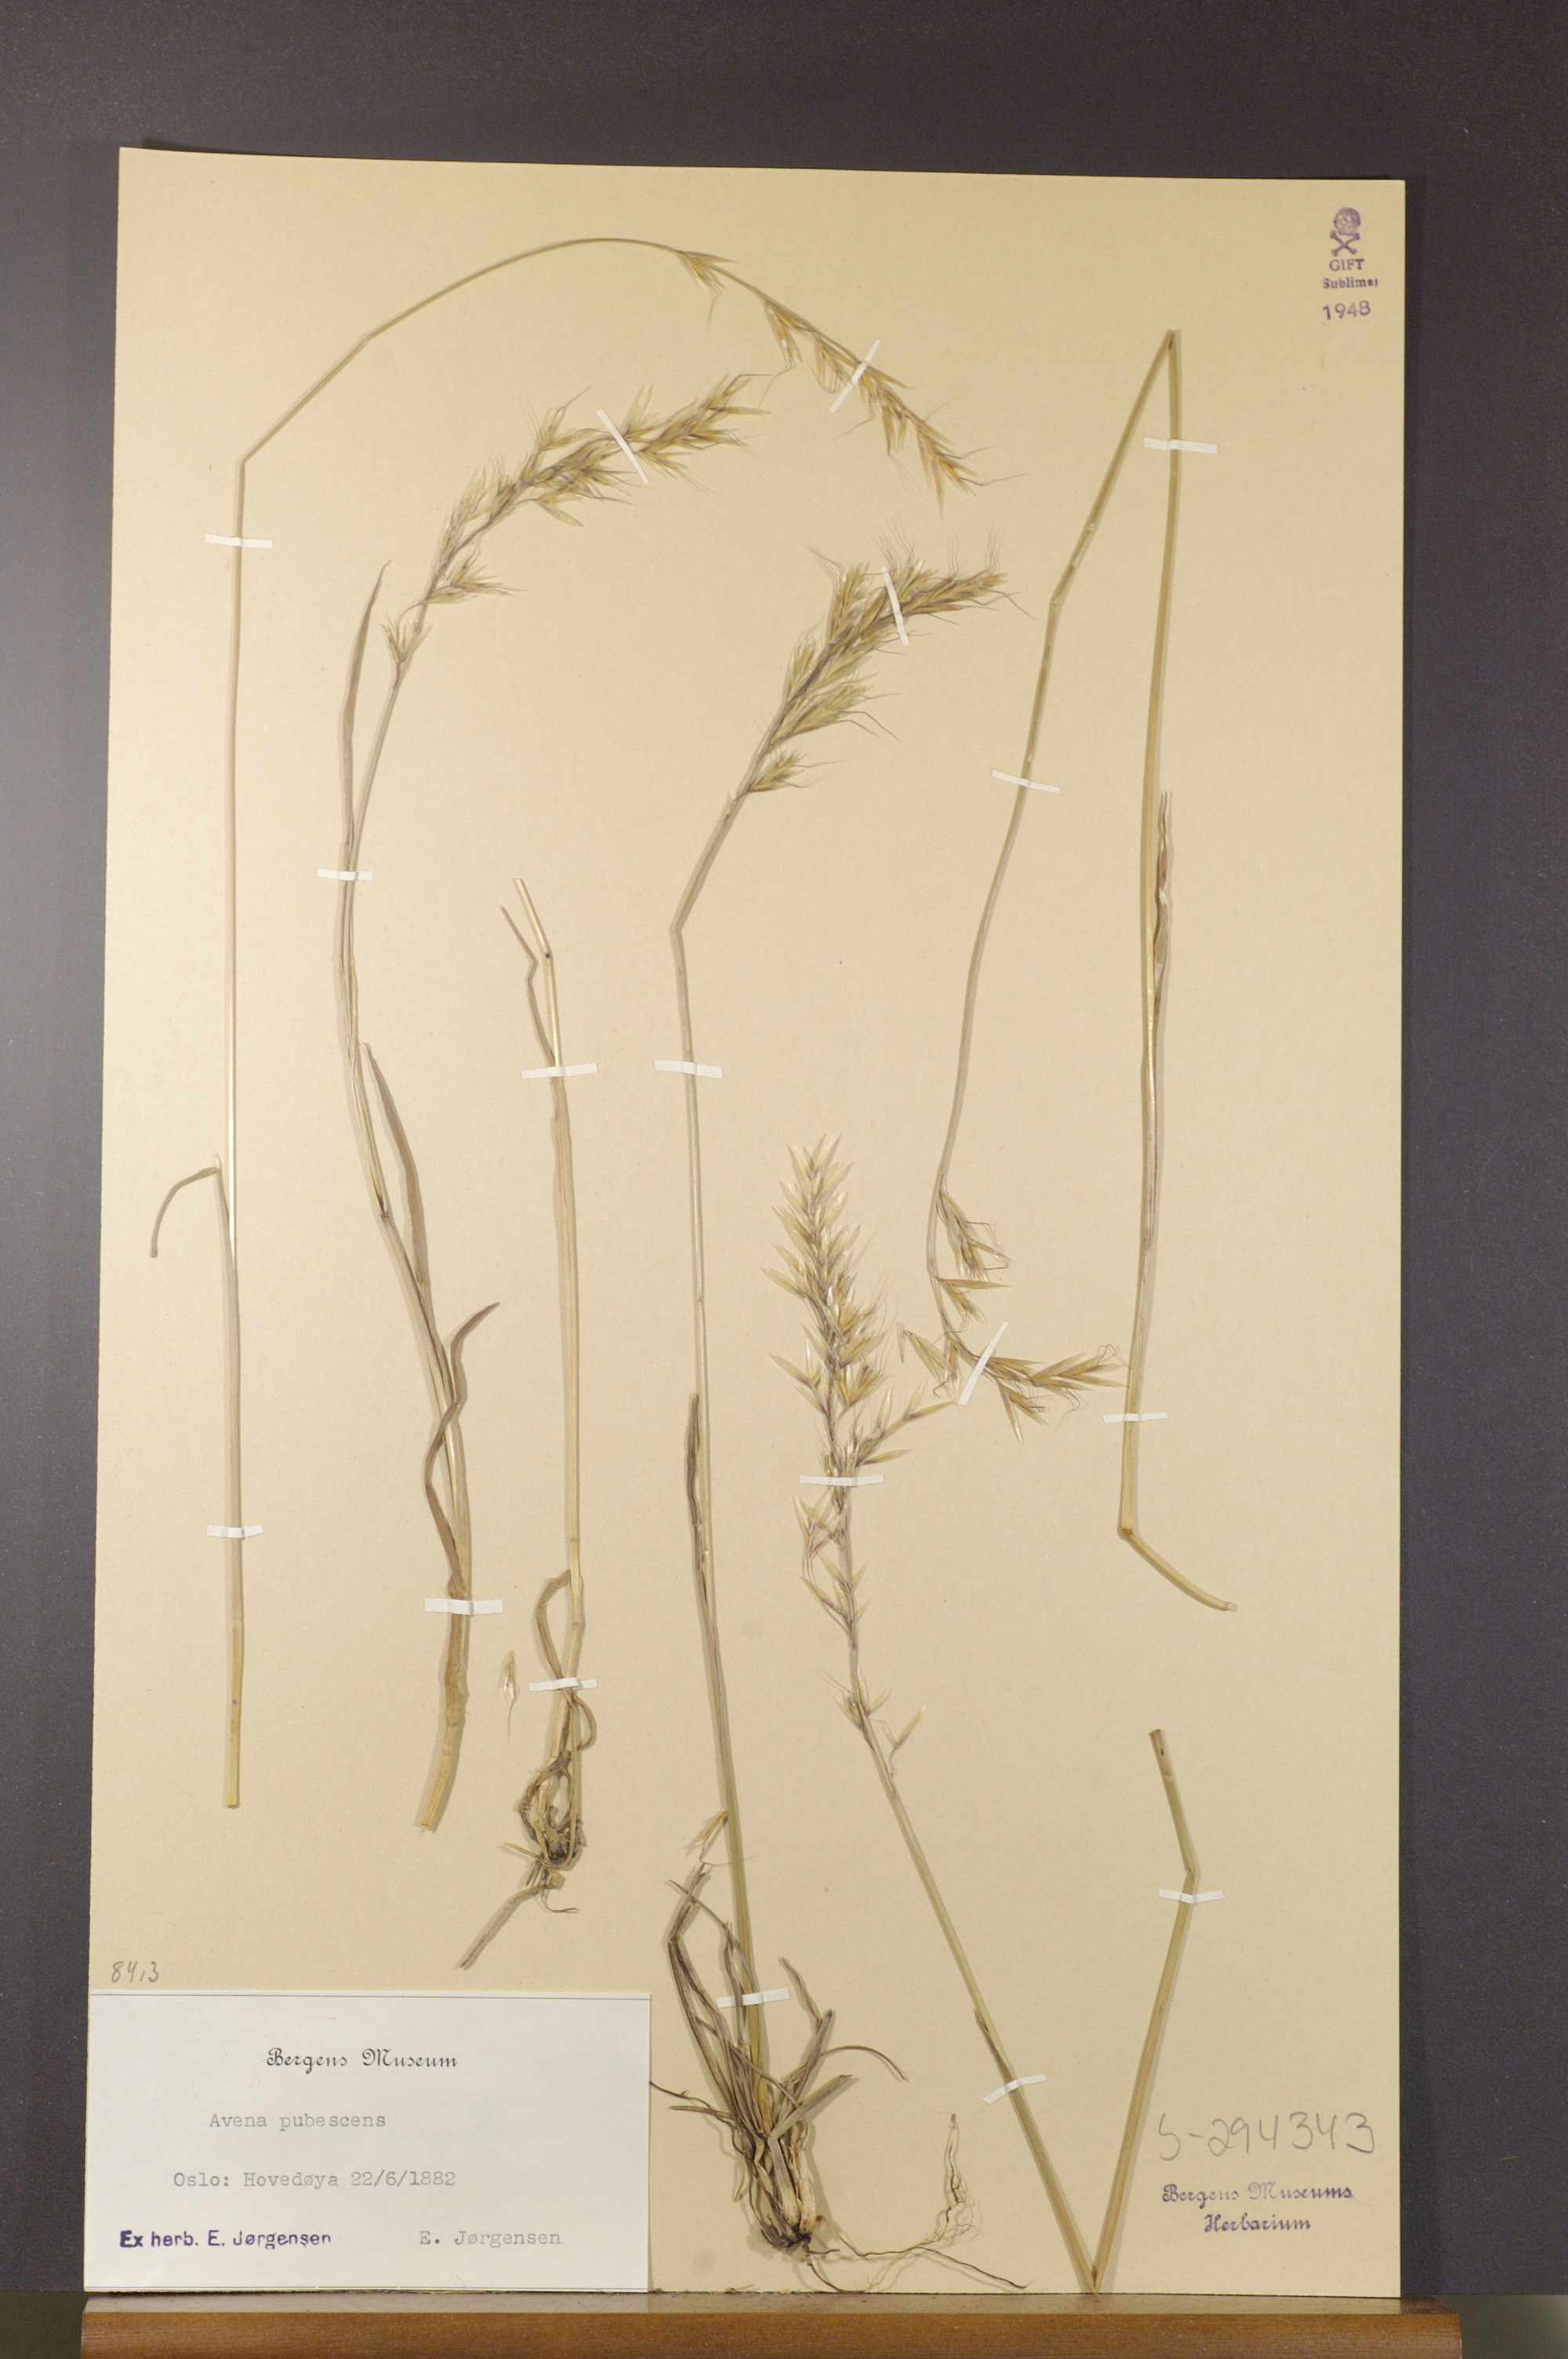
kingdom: Plantae
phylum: Tracheophyta
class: Liliopsida
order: Poales
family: Poaceae
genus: Avenula
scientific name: Avenula pubescens
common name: Downy alpine oatgrass
